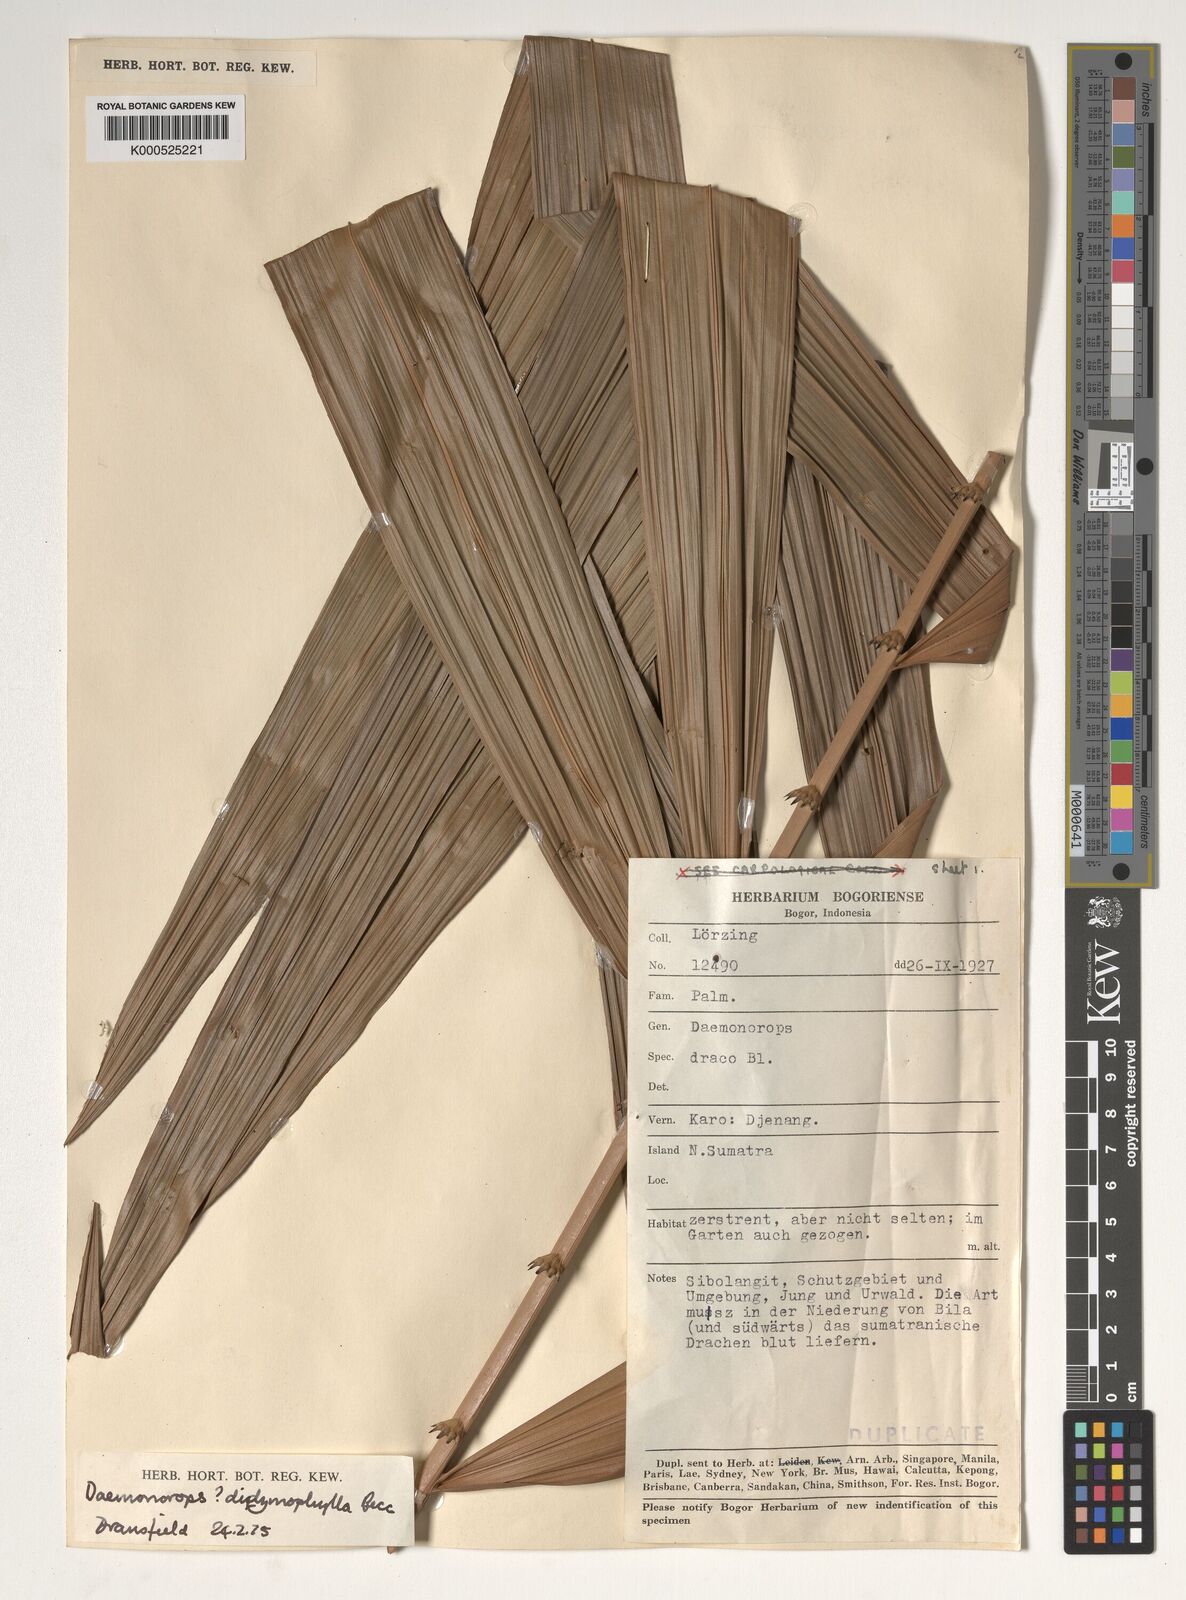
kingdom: Plantae
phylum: Tracheophyta
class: Liliopsida
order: Arecales
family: Arecaceae
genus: Calamus
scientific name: Calamus gracilipes
